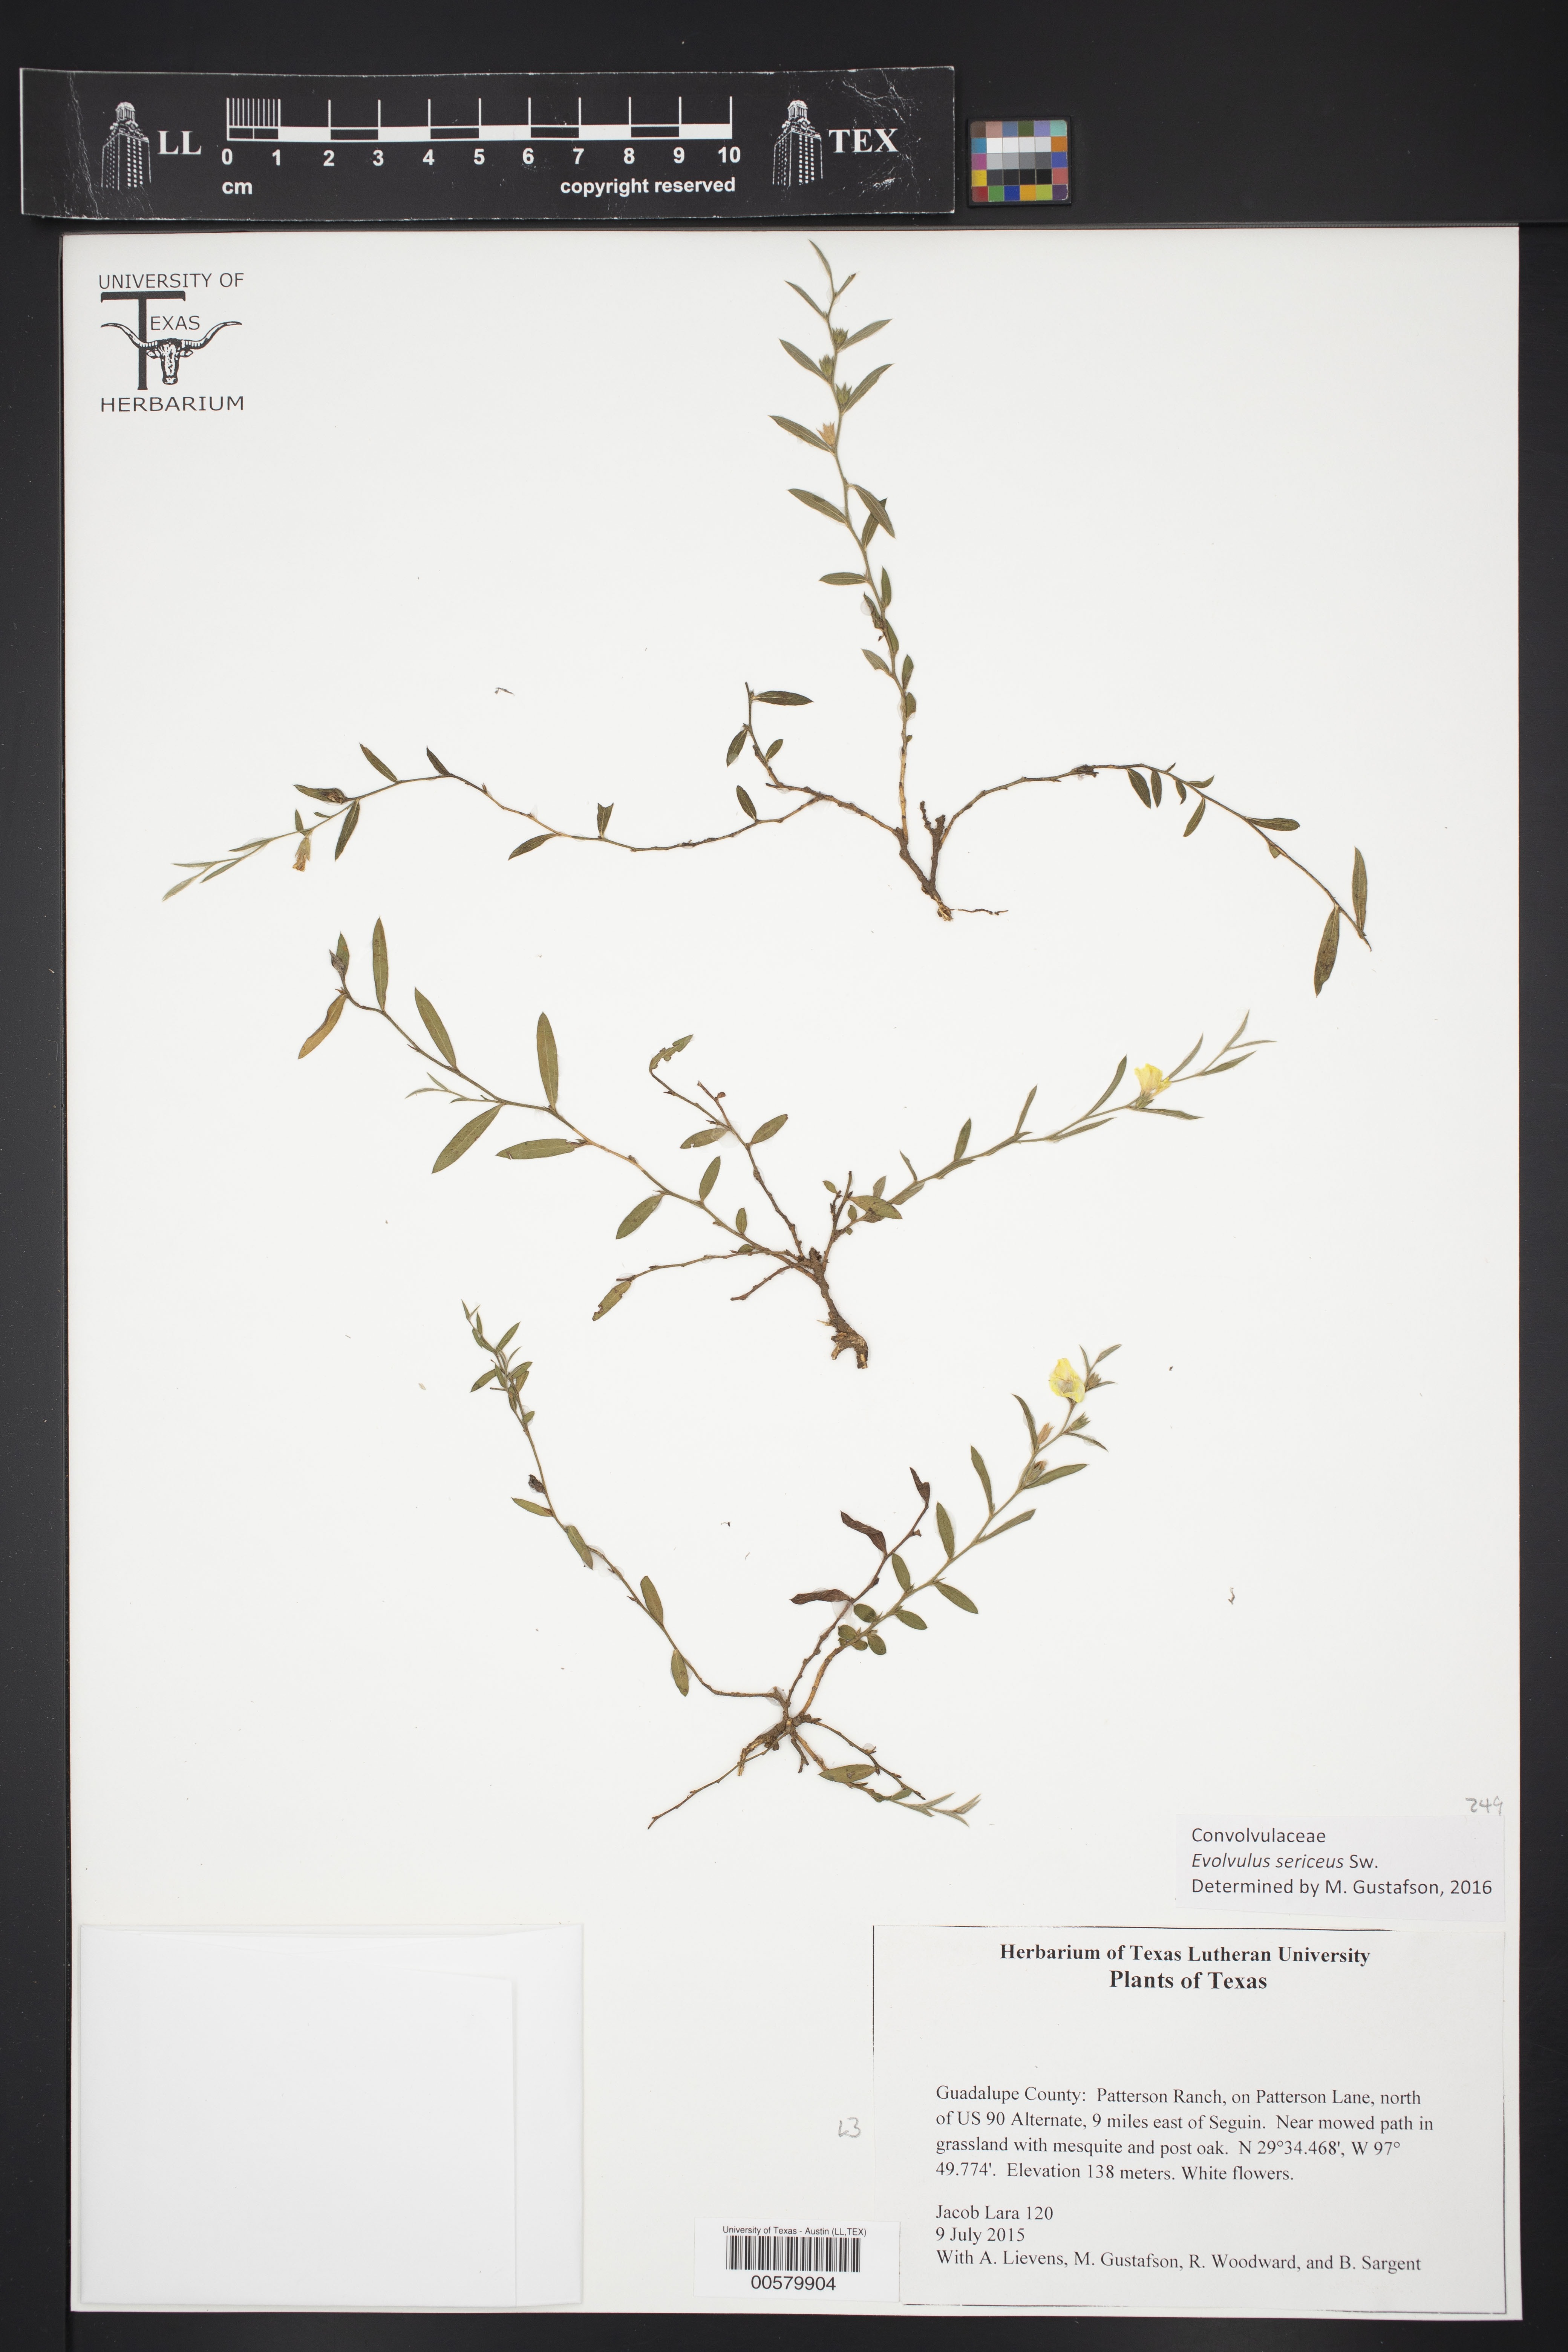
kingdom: Plantae
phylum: Tracheophyta
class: Magnoliopsida
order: Solanales
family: Convolvulaceae
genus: Evolvulus
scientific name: Evolvulus sericeus
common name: Blue dots
